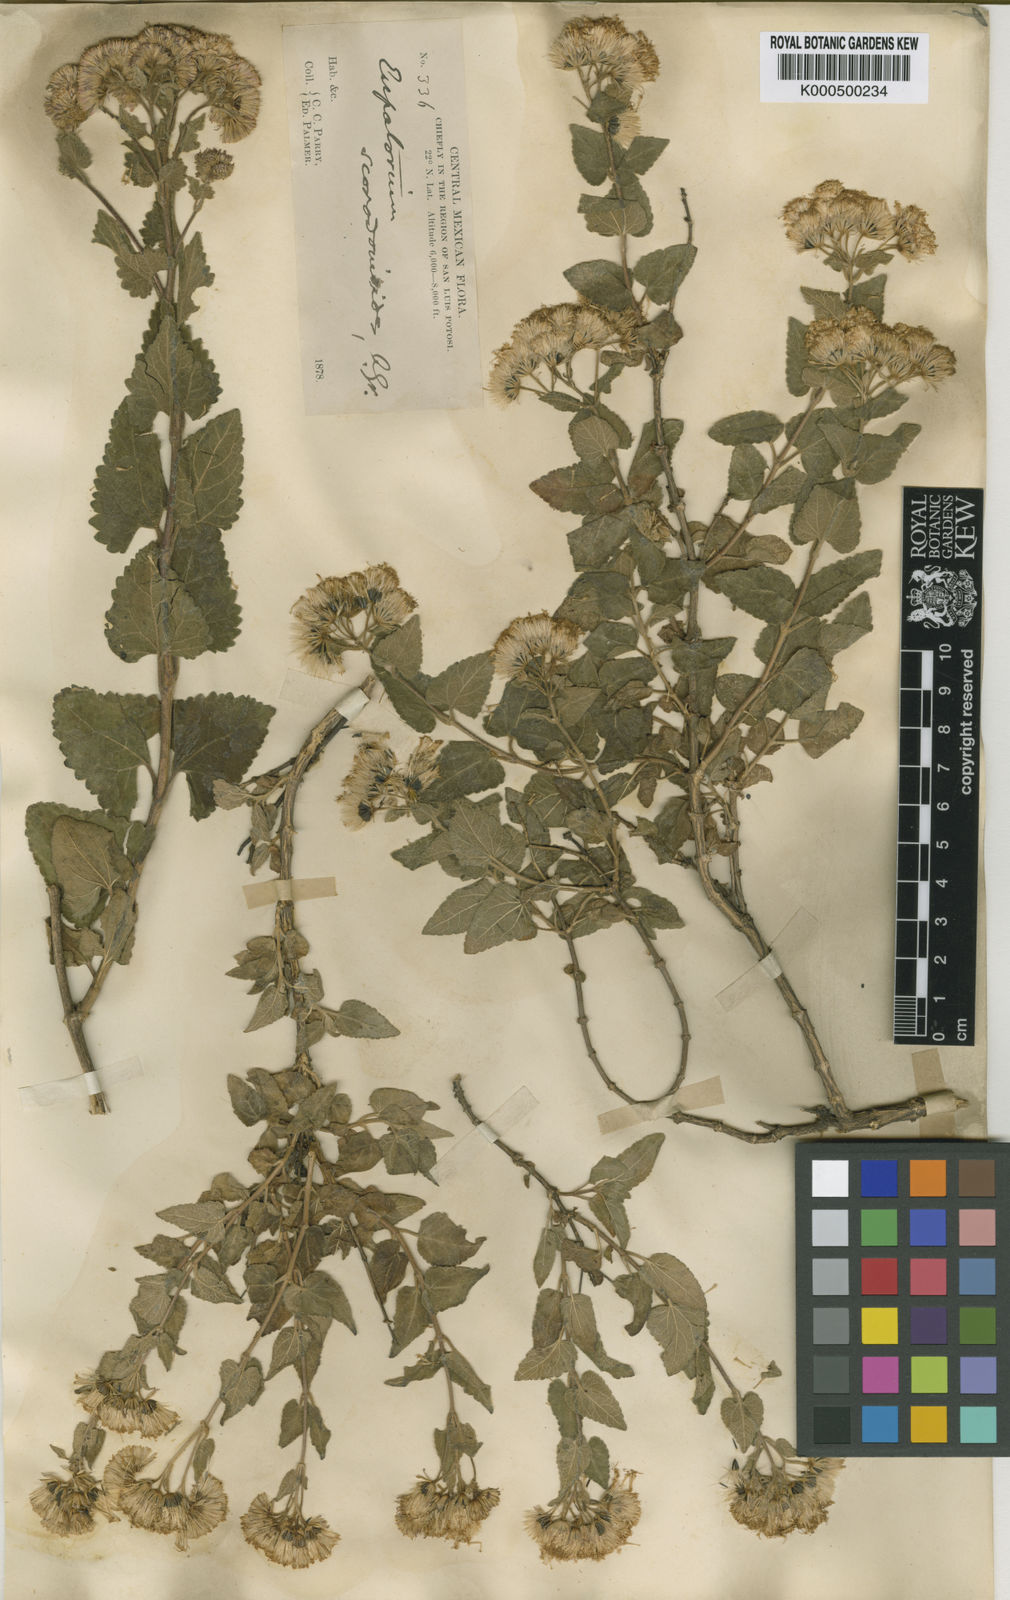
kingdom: Plantae
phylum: Tracheophyta
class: Magnoliopsida
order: Asterales
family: Asteraceae
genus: Ageratina
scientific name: Ageratina scorodonioides
